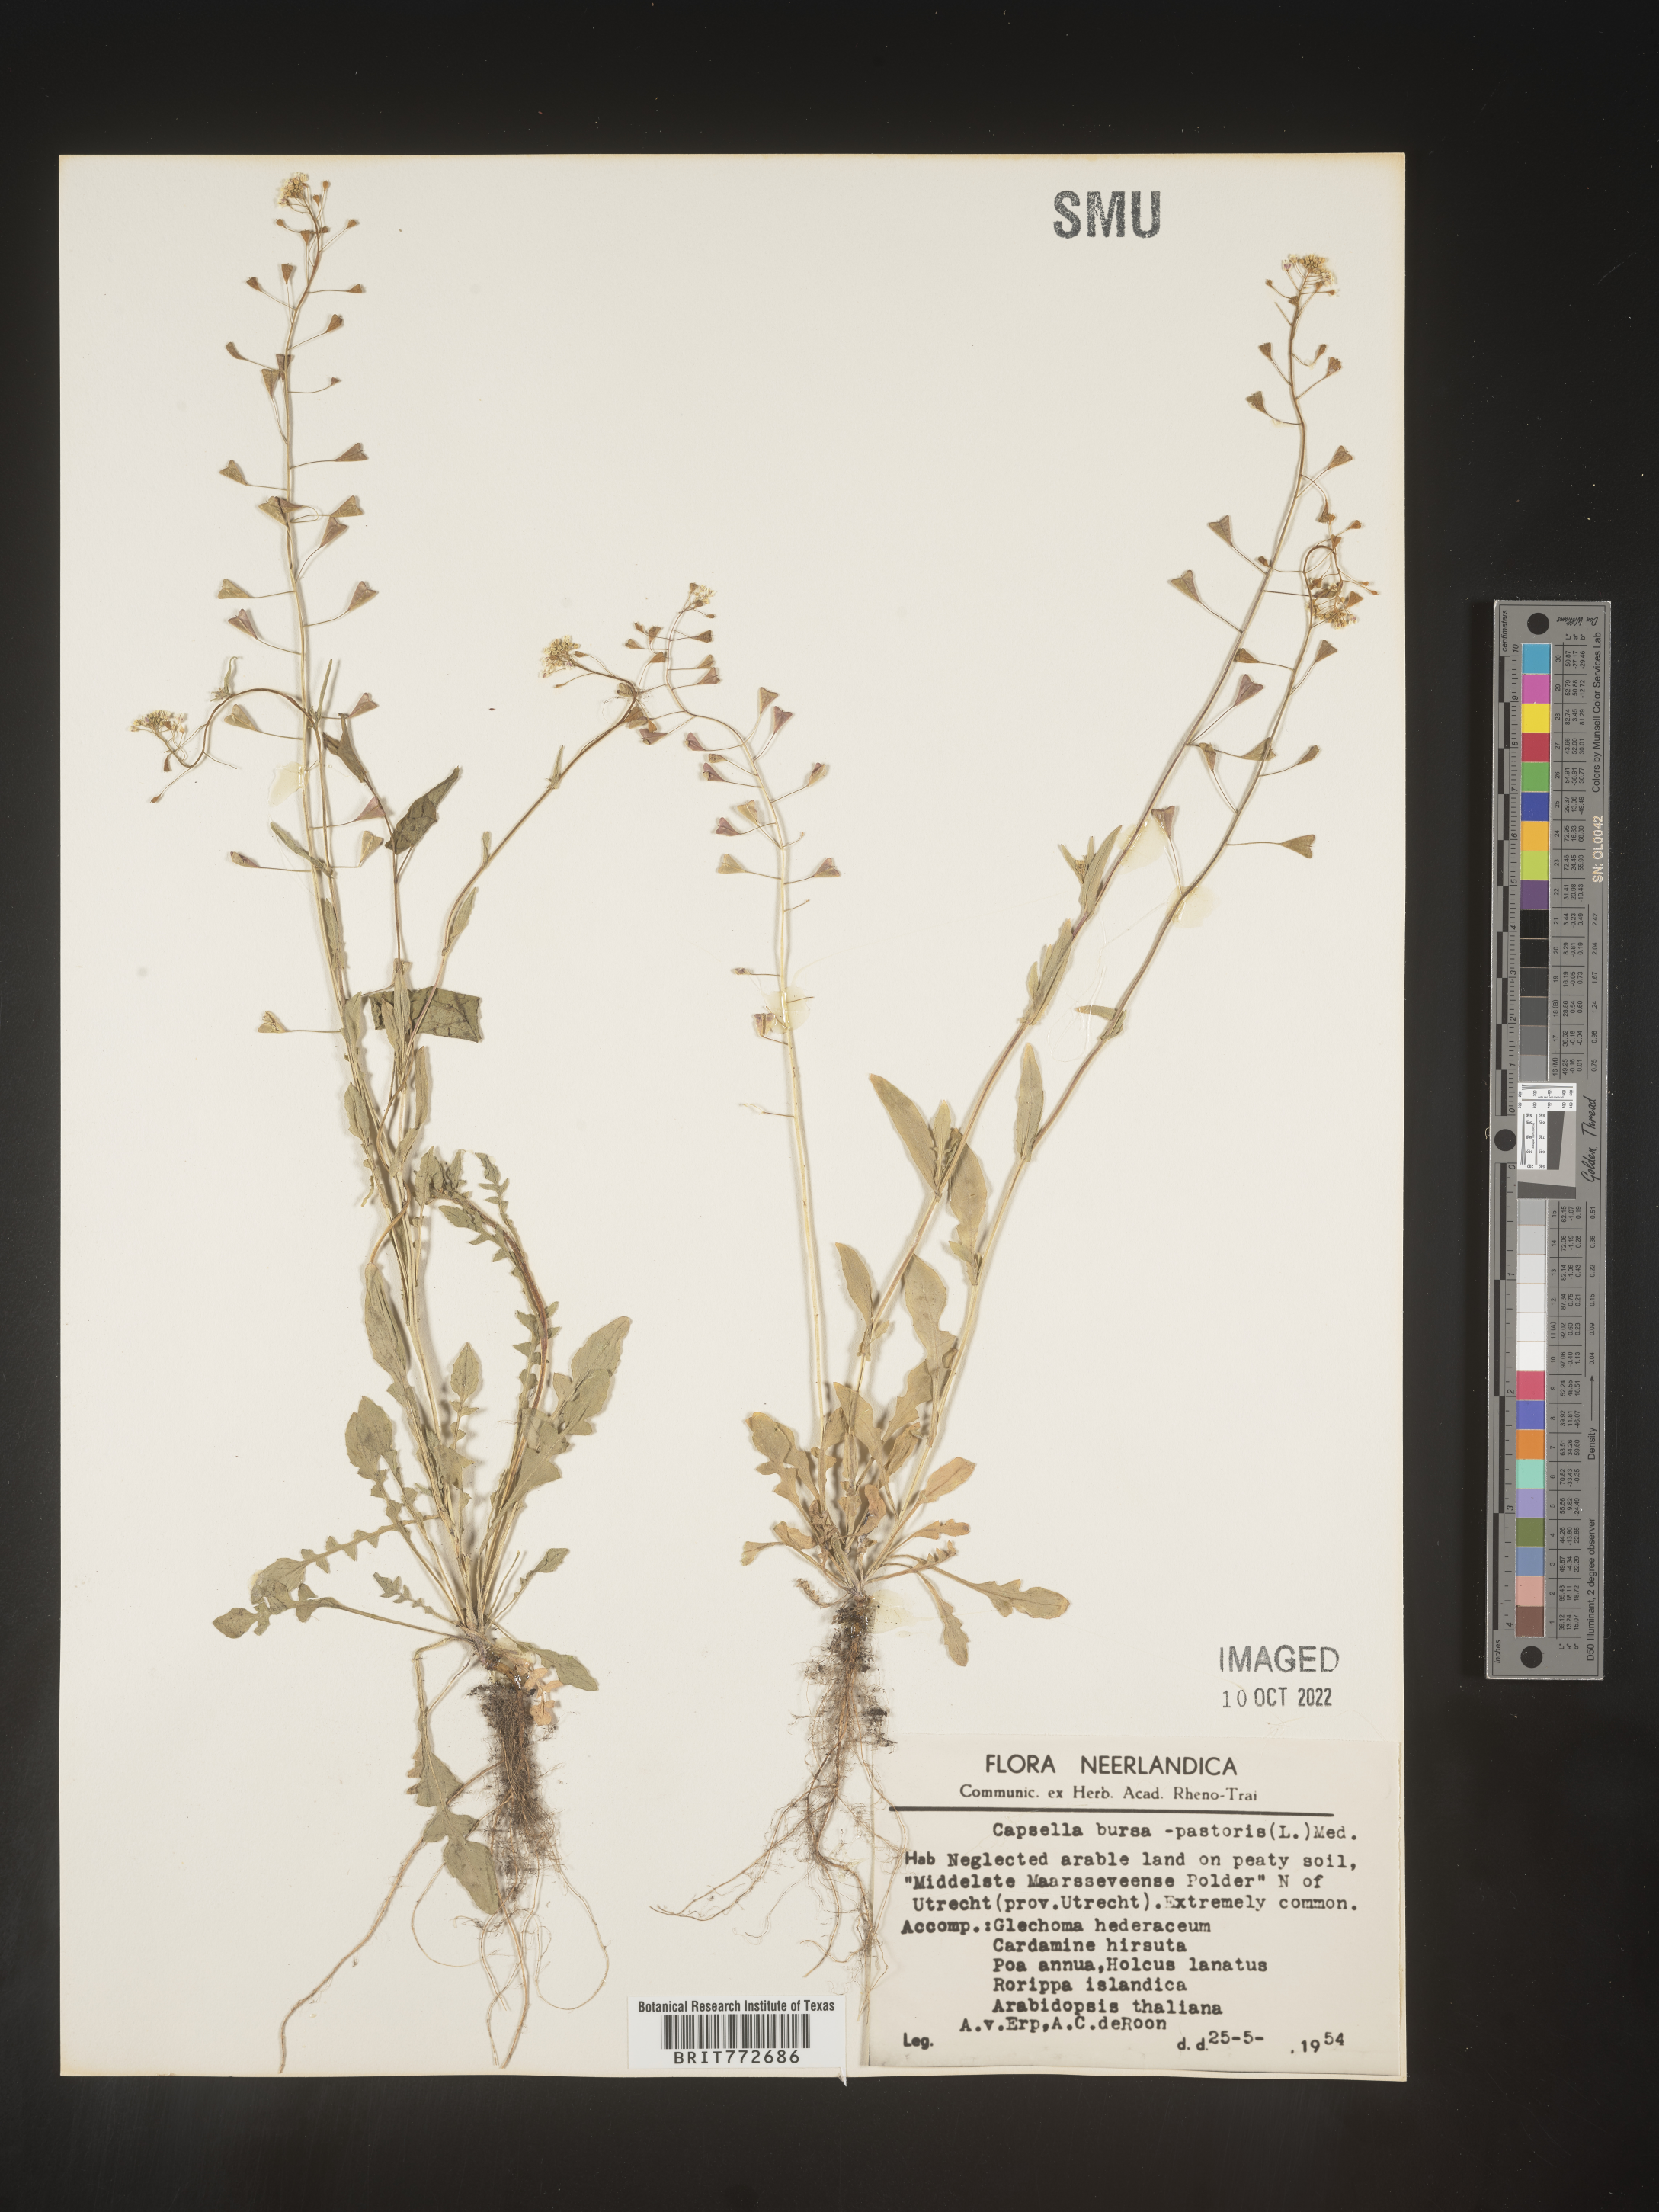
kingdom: Plantae
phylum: Tracheophyta
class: Magnoliopsida
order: Brassicales
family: Brassicaceae
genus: Capsella
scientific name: Capsella
